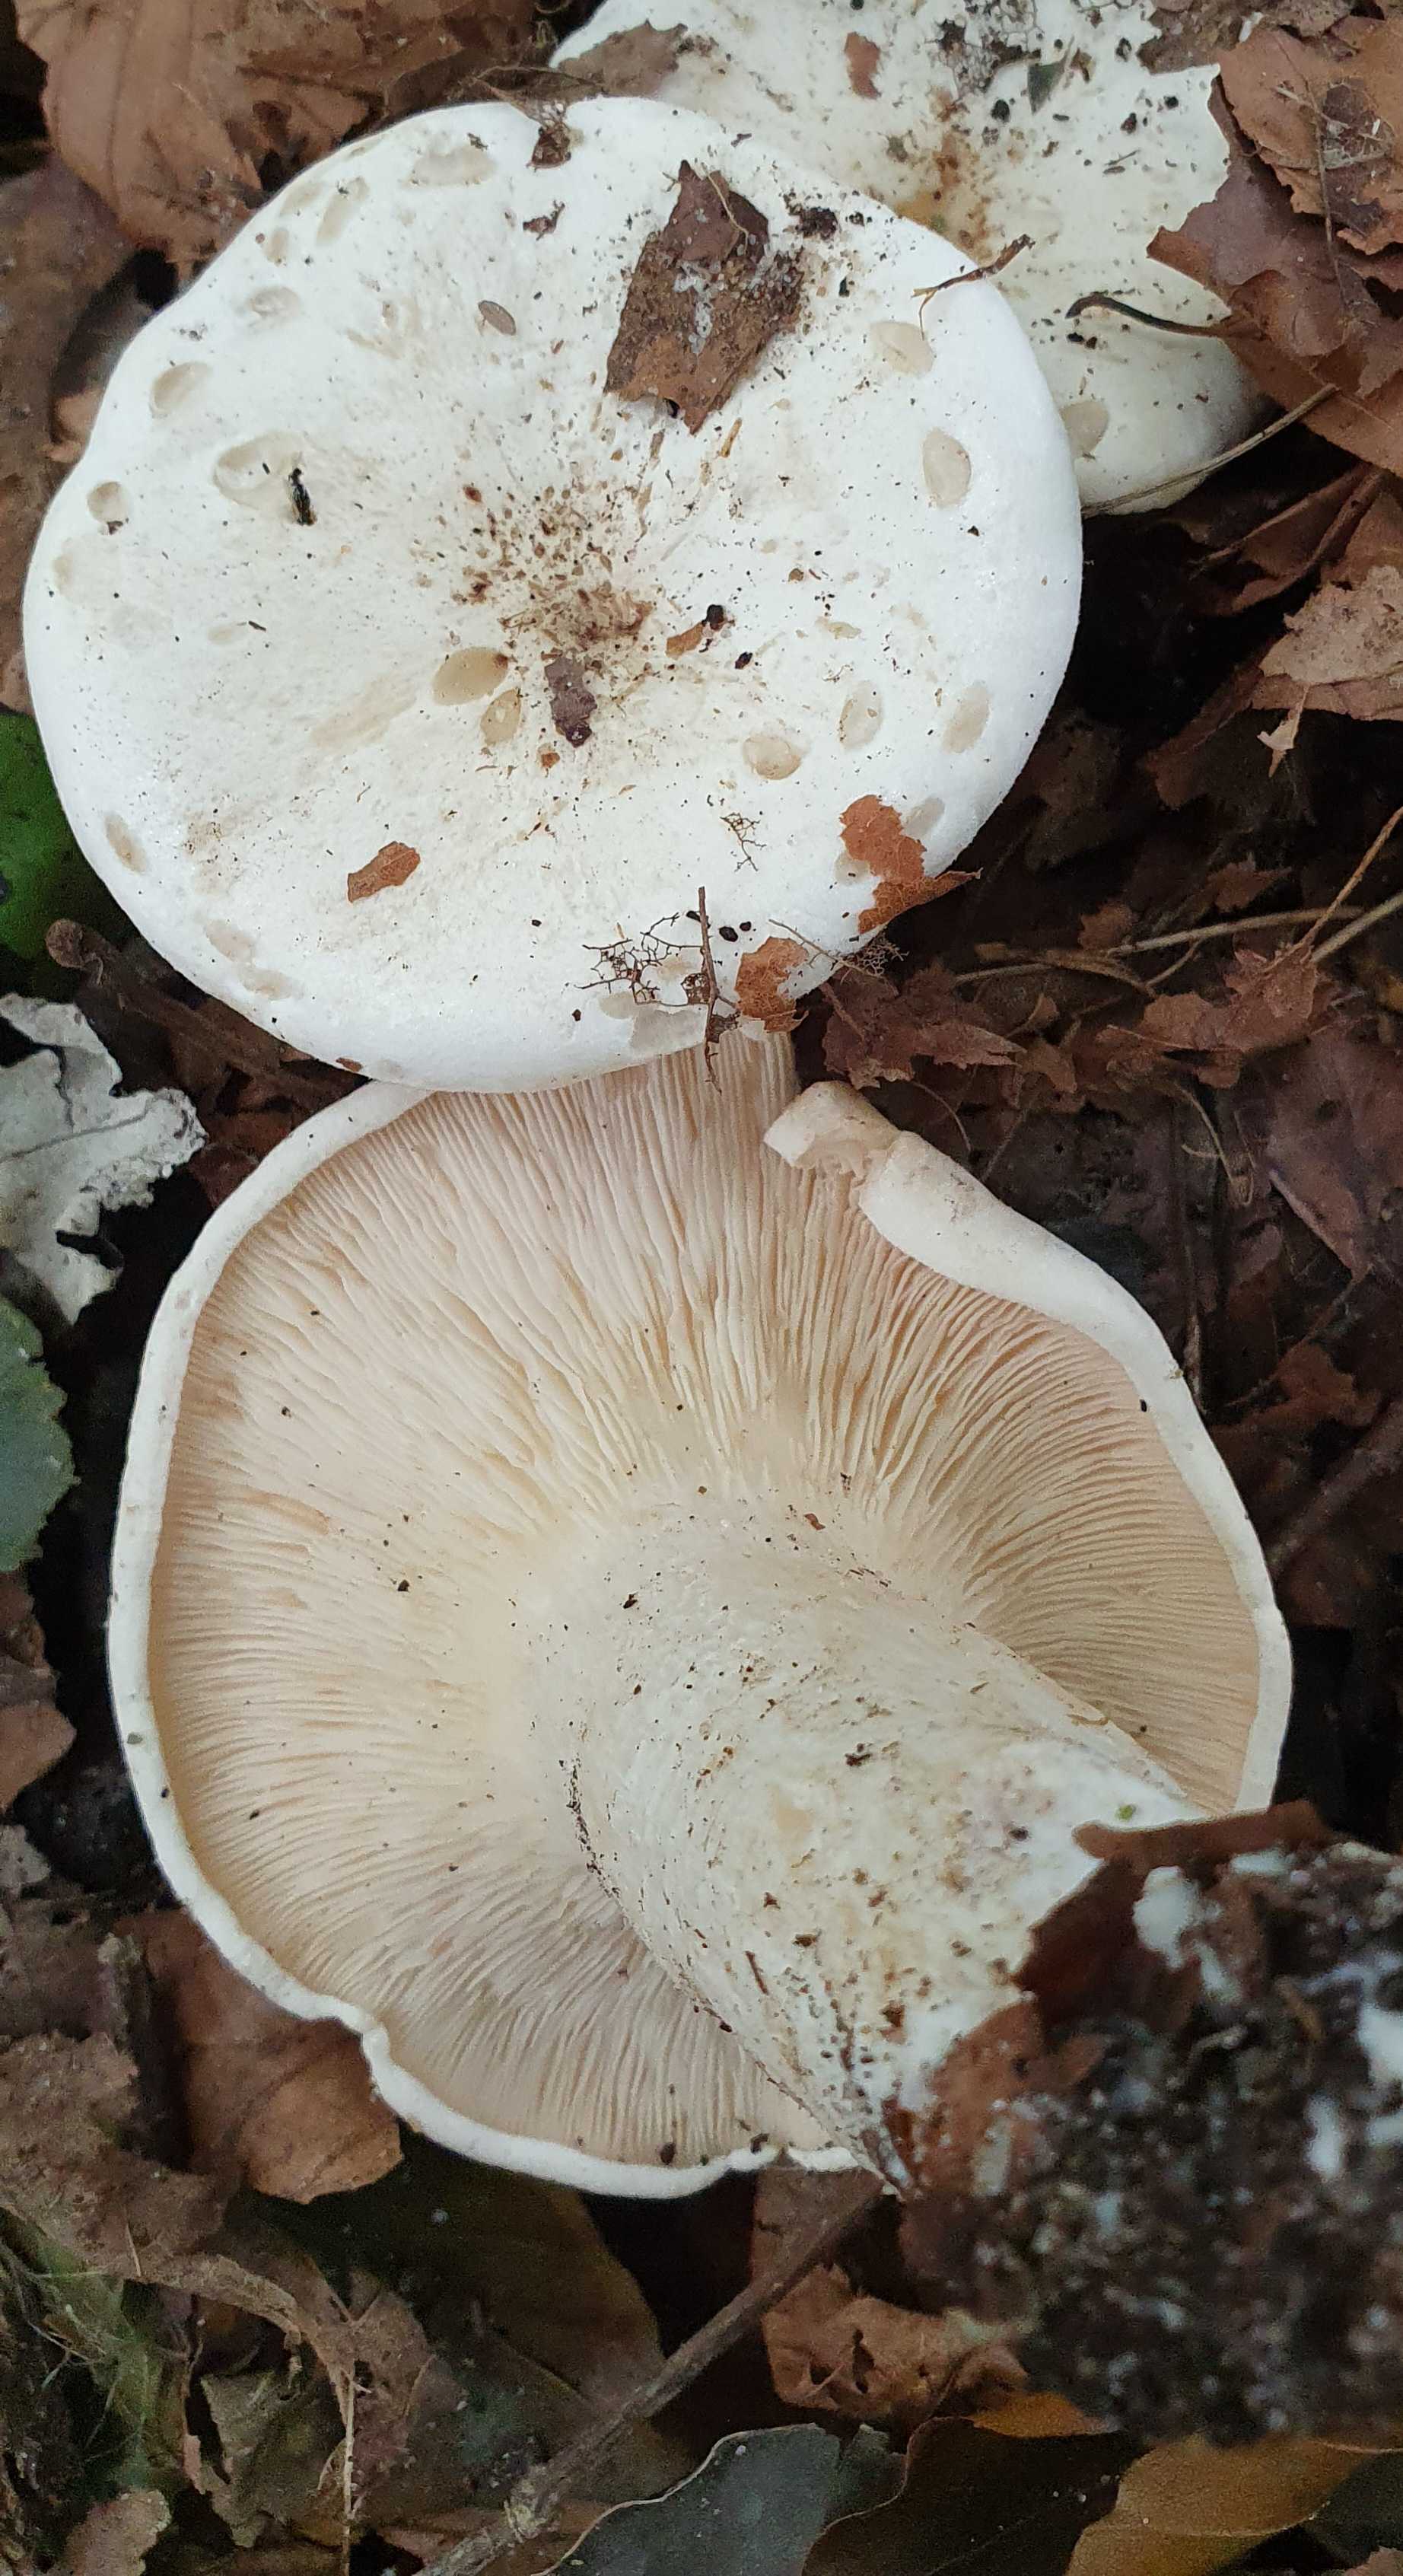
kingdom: Fungi
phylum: Basidiomycota
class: Agaricomycetes
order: Agaricales
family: Tricholomataceae
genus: Aspropaxillus
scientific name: Aspropaxillus giganteus
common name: kæmpe-tragtridderhat
